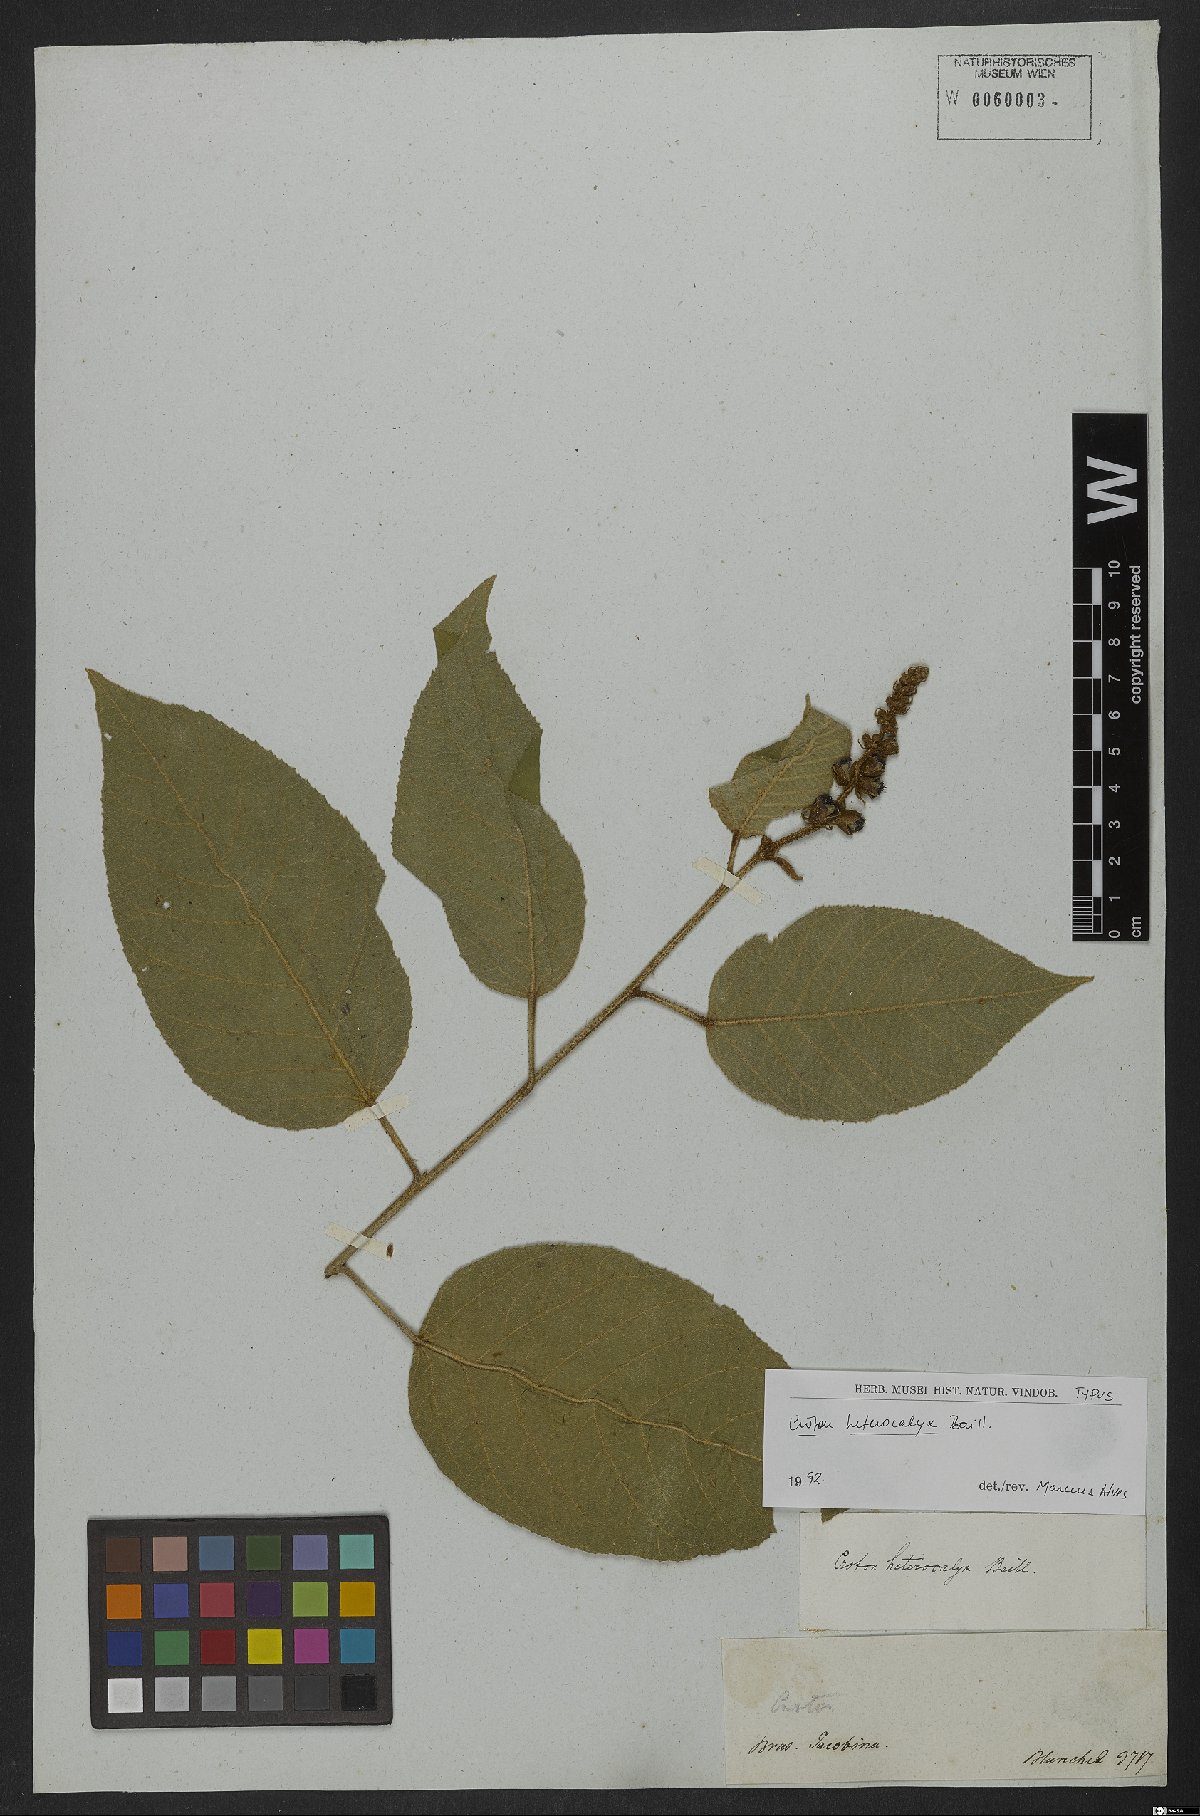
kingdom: Plantae
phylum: Tracheophyta
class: Magnoliopsida
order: Malpighiales
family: Euphorbiaceae
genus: Croton
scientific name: Croton heterocalyx
